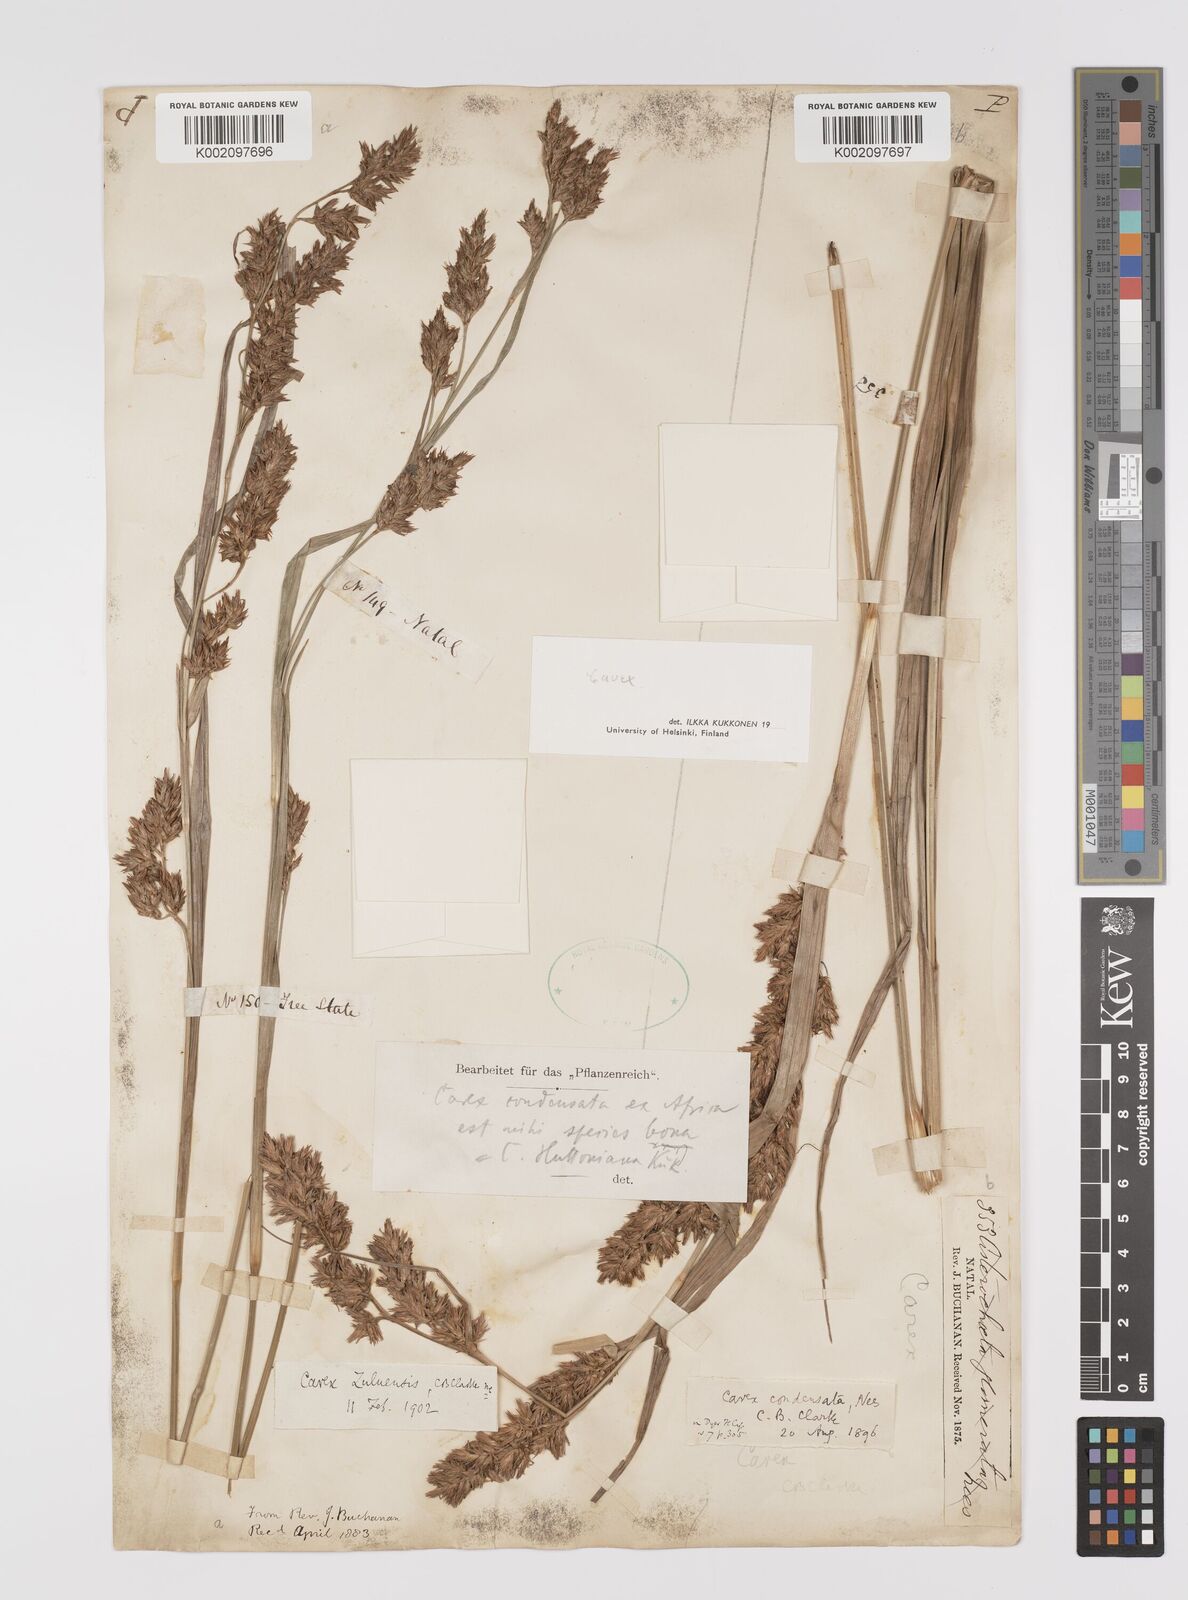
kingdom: Plantae
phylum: Tracheophyta
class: Liliopsida
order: Poales
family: Cyperaceae
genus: Carex
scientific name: Carex
